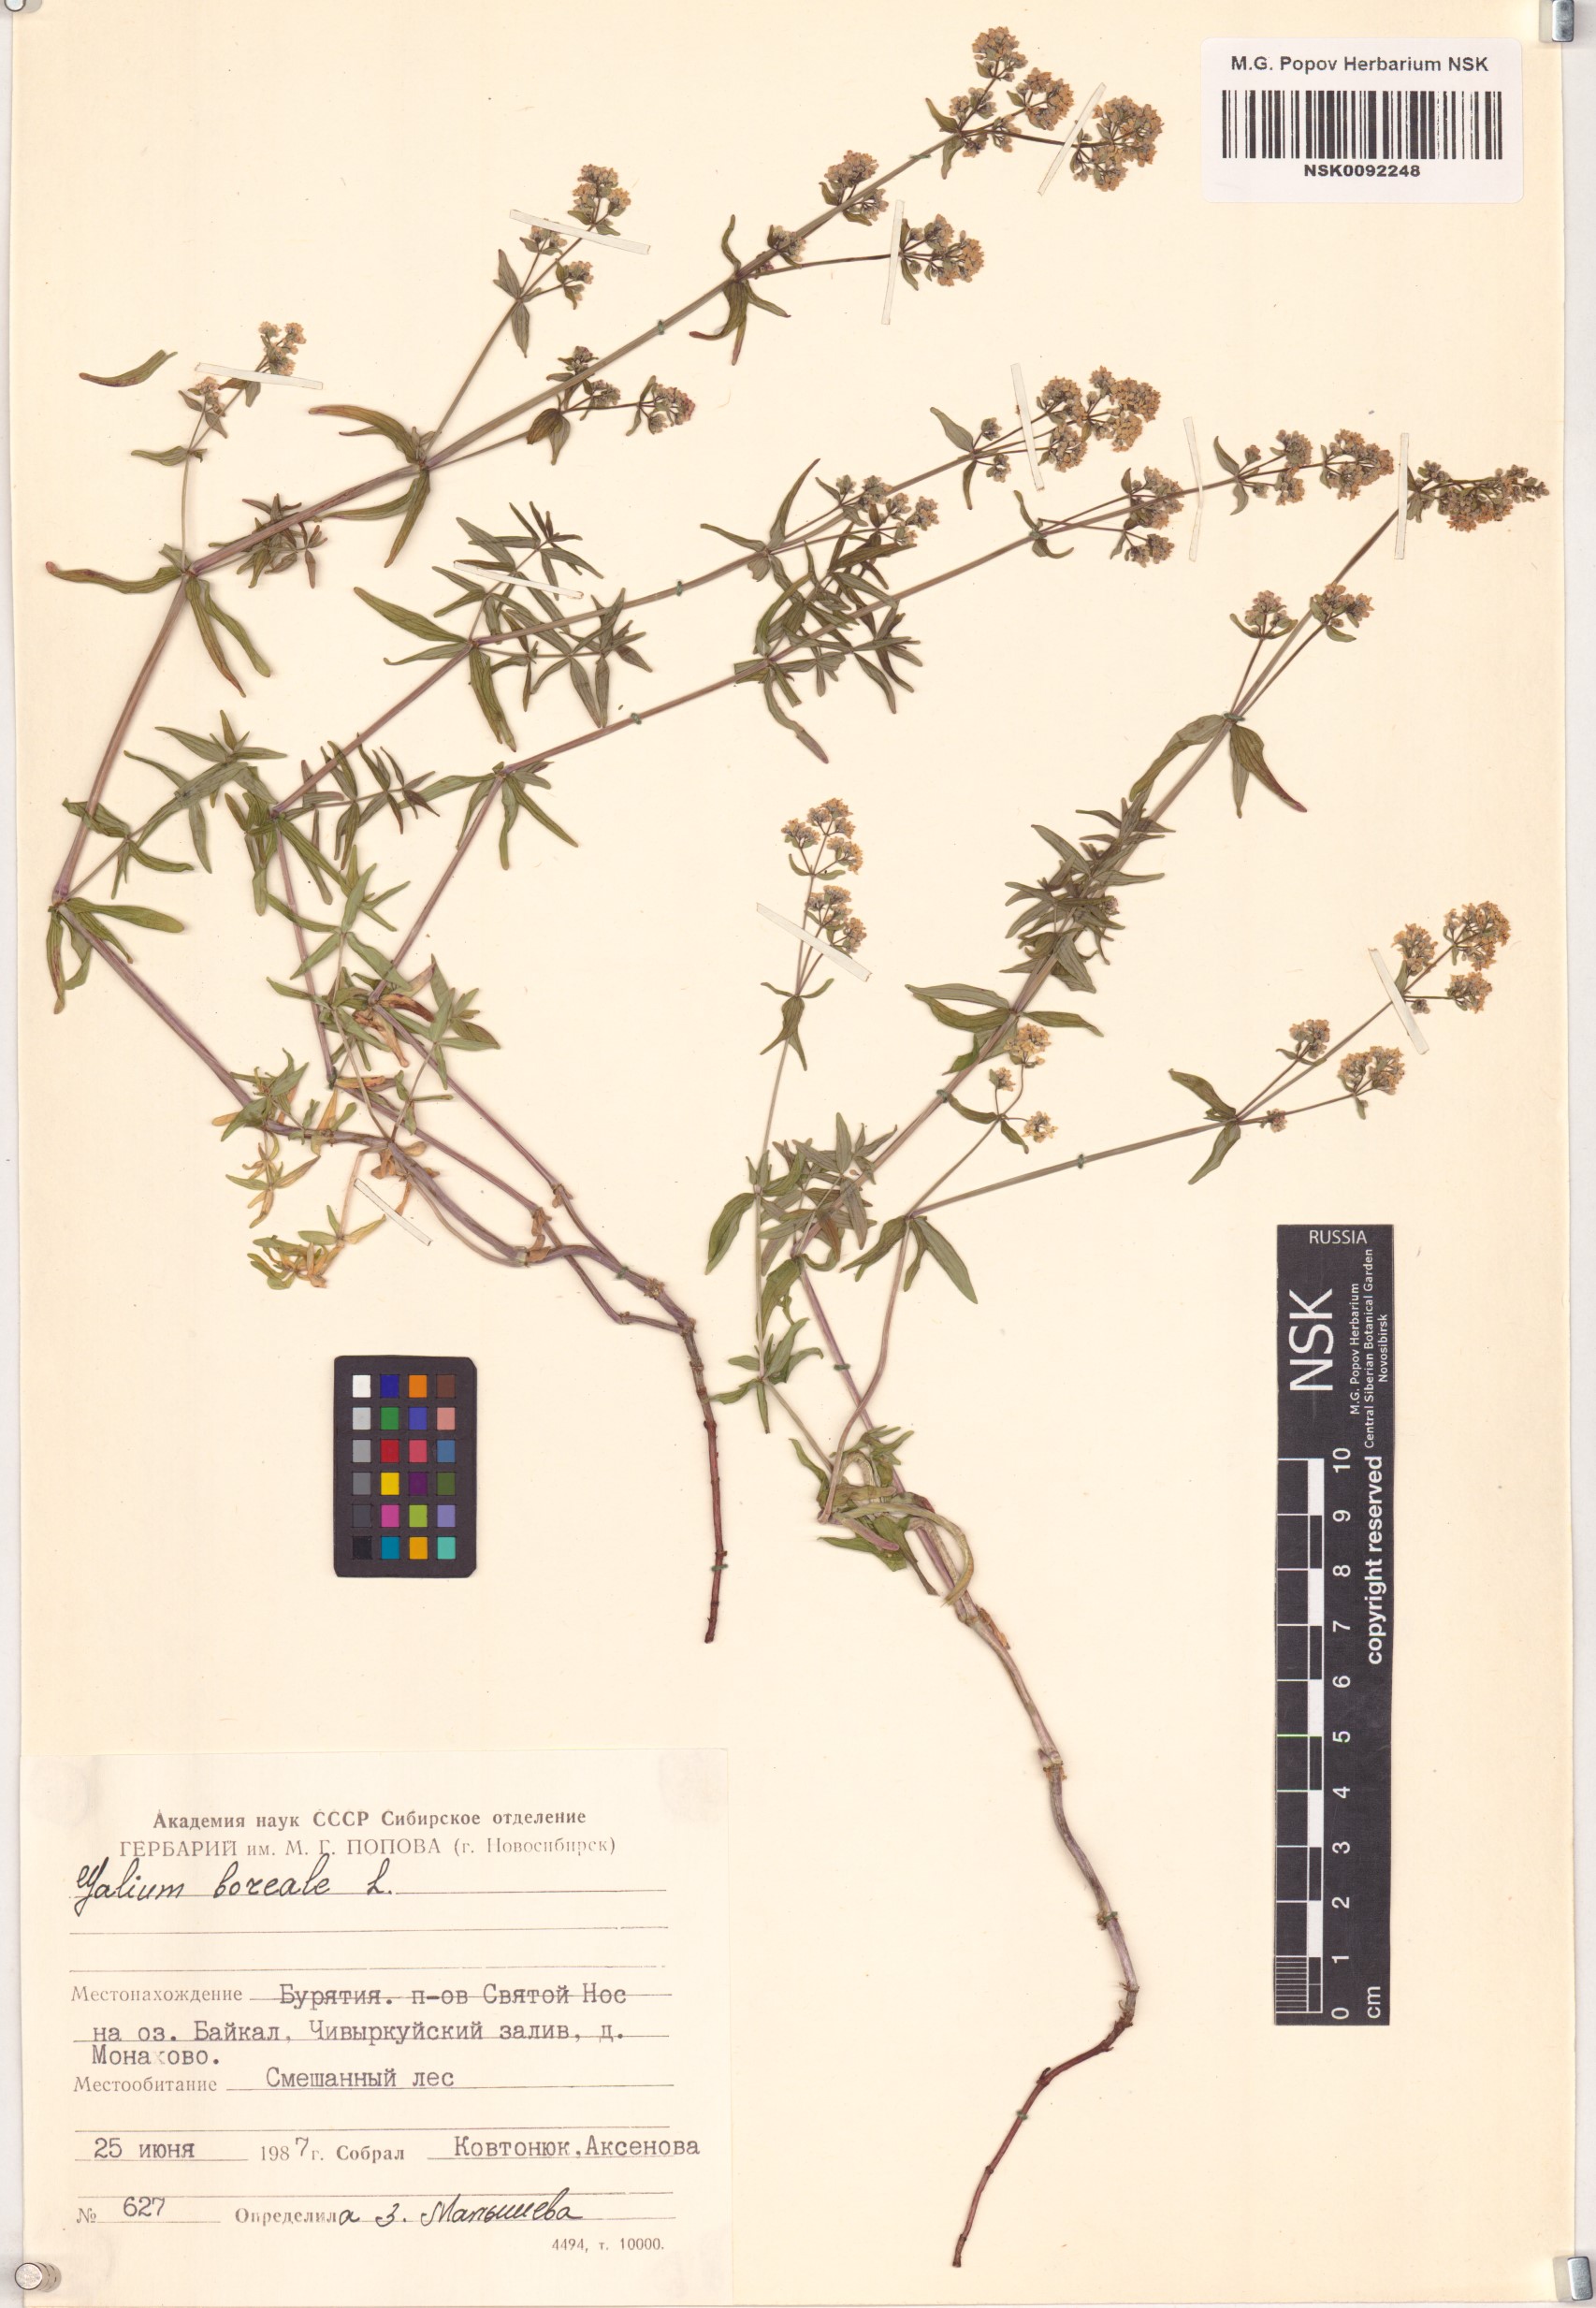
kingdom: Plantae
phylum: Tracheophyta
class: Magnoliopsida
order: Gentianales
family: Rubiaceae
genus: Galium
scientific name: Galium boreale
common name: Northern bedstraw
